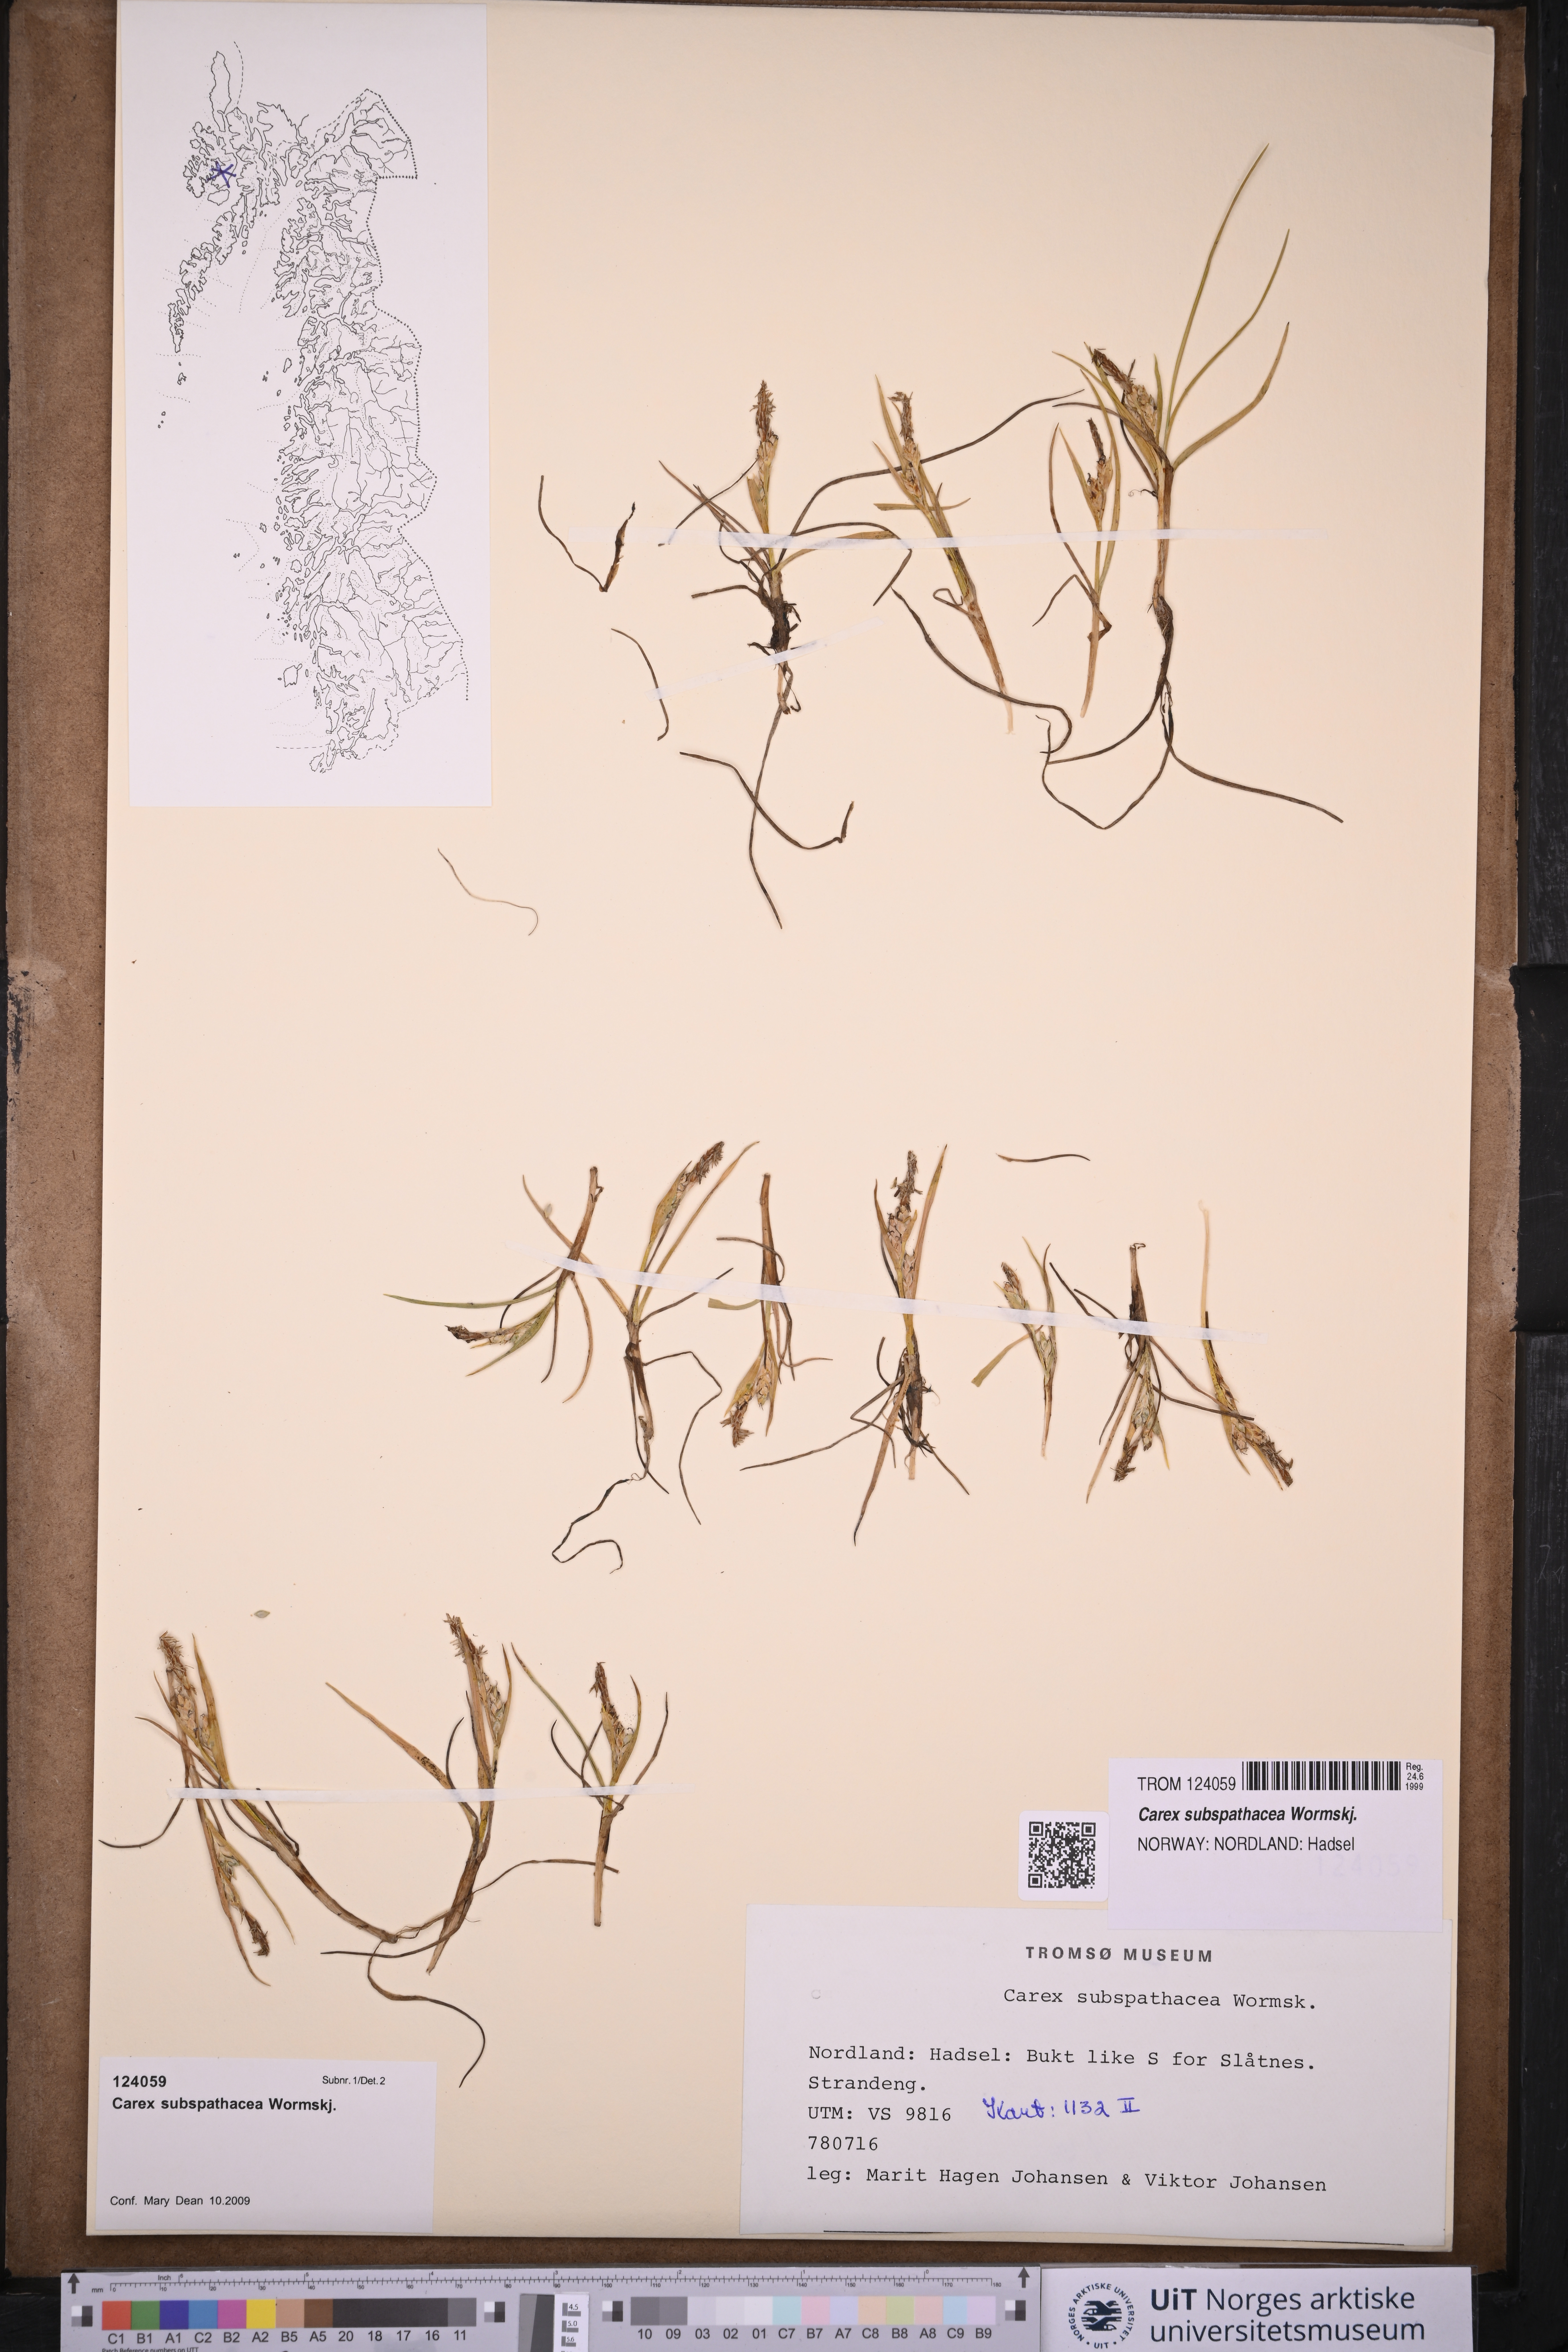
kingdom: Plantae
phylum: Tracheophyta
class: Liliopsida
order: Poales
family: Cyperaceae
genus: Carex
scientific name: Carex subspathacea
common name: Hoppner's sedge
